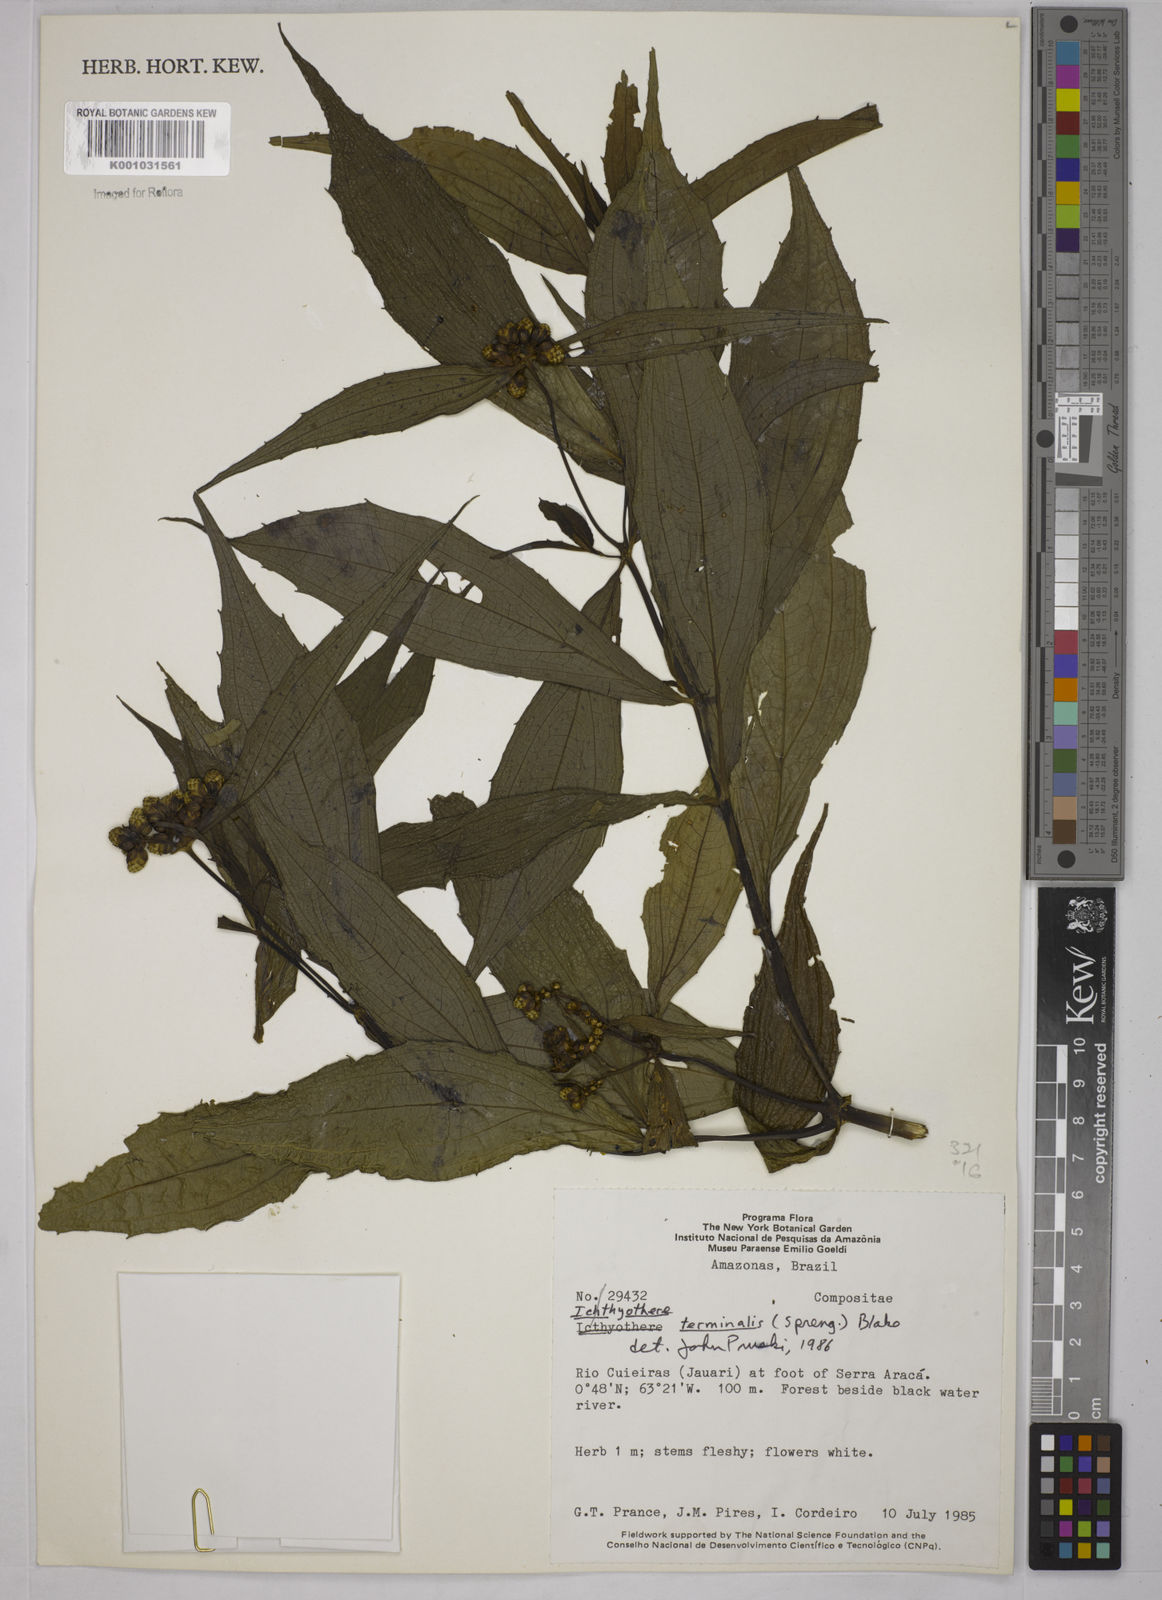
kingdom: Plantae
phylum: Tracheophyta
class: Magnoliopsida
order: Asterales
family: Asteraceae
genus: Ichthyothere
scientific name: Ichthyothere cunabi
